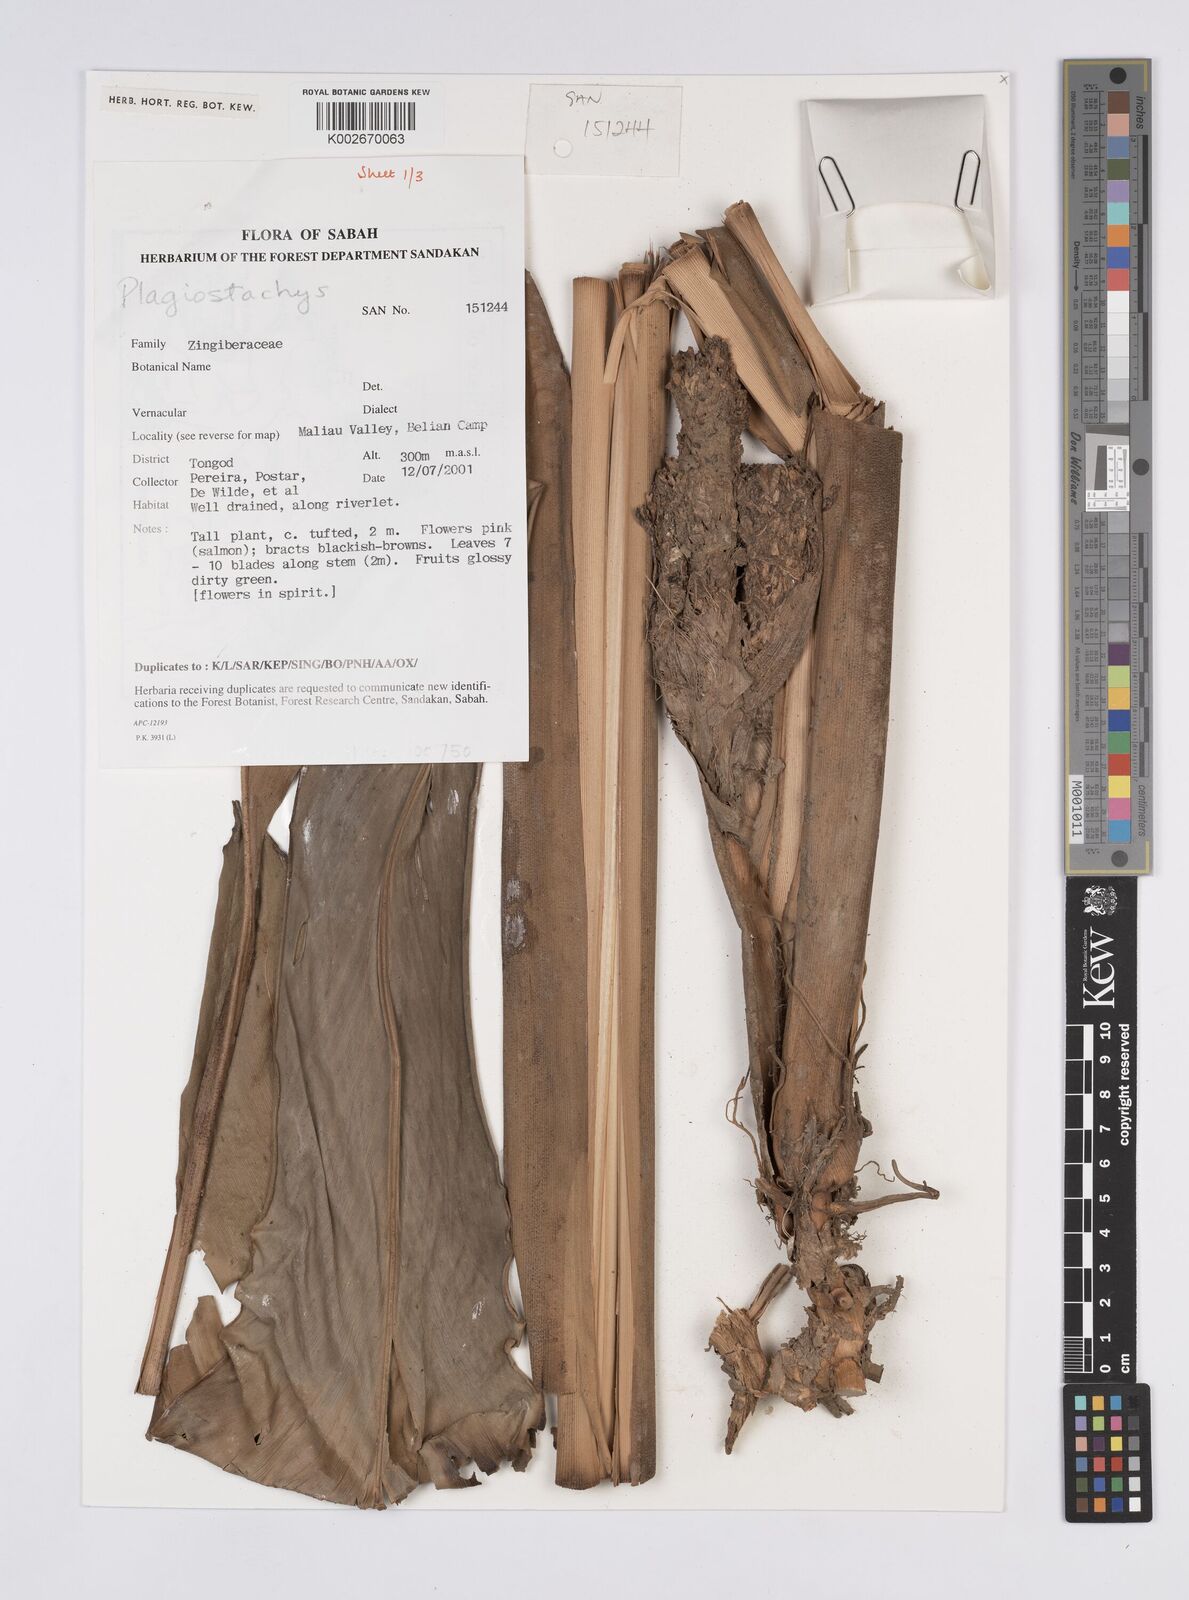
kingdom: Plantae
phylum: Tracheophyta
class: Liliopsida
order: Zingiberales
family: Zingiberaceae
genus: Plagiostachys
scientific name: Plagiostachys
